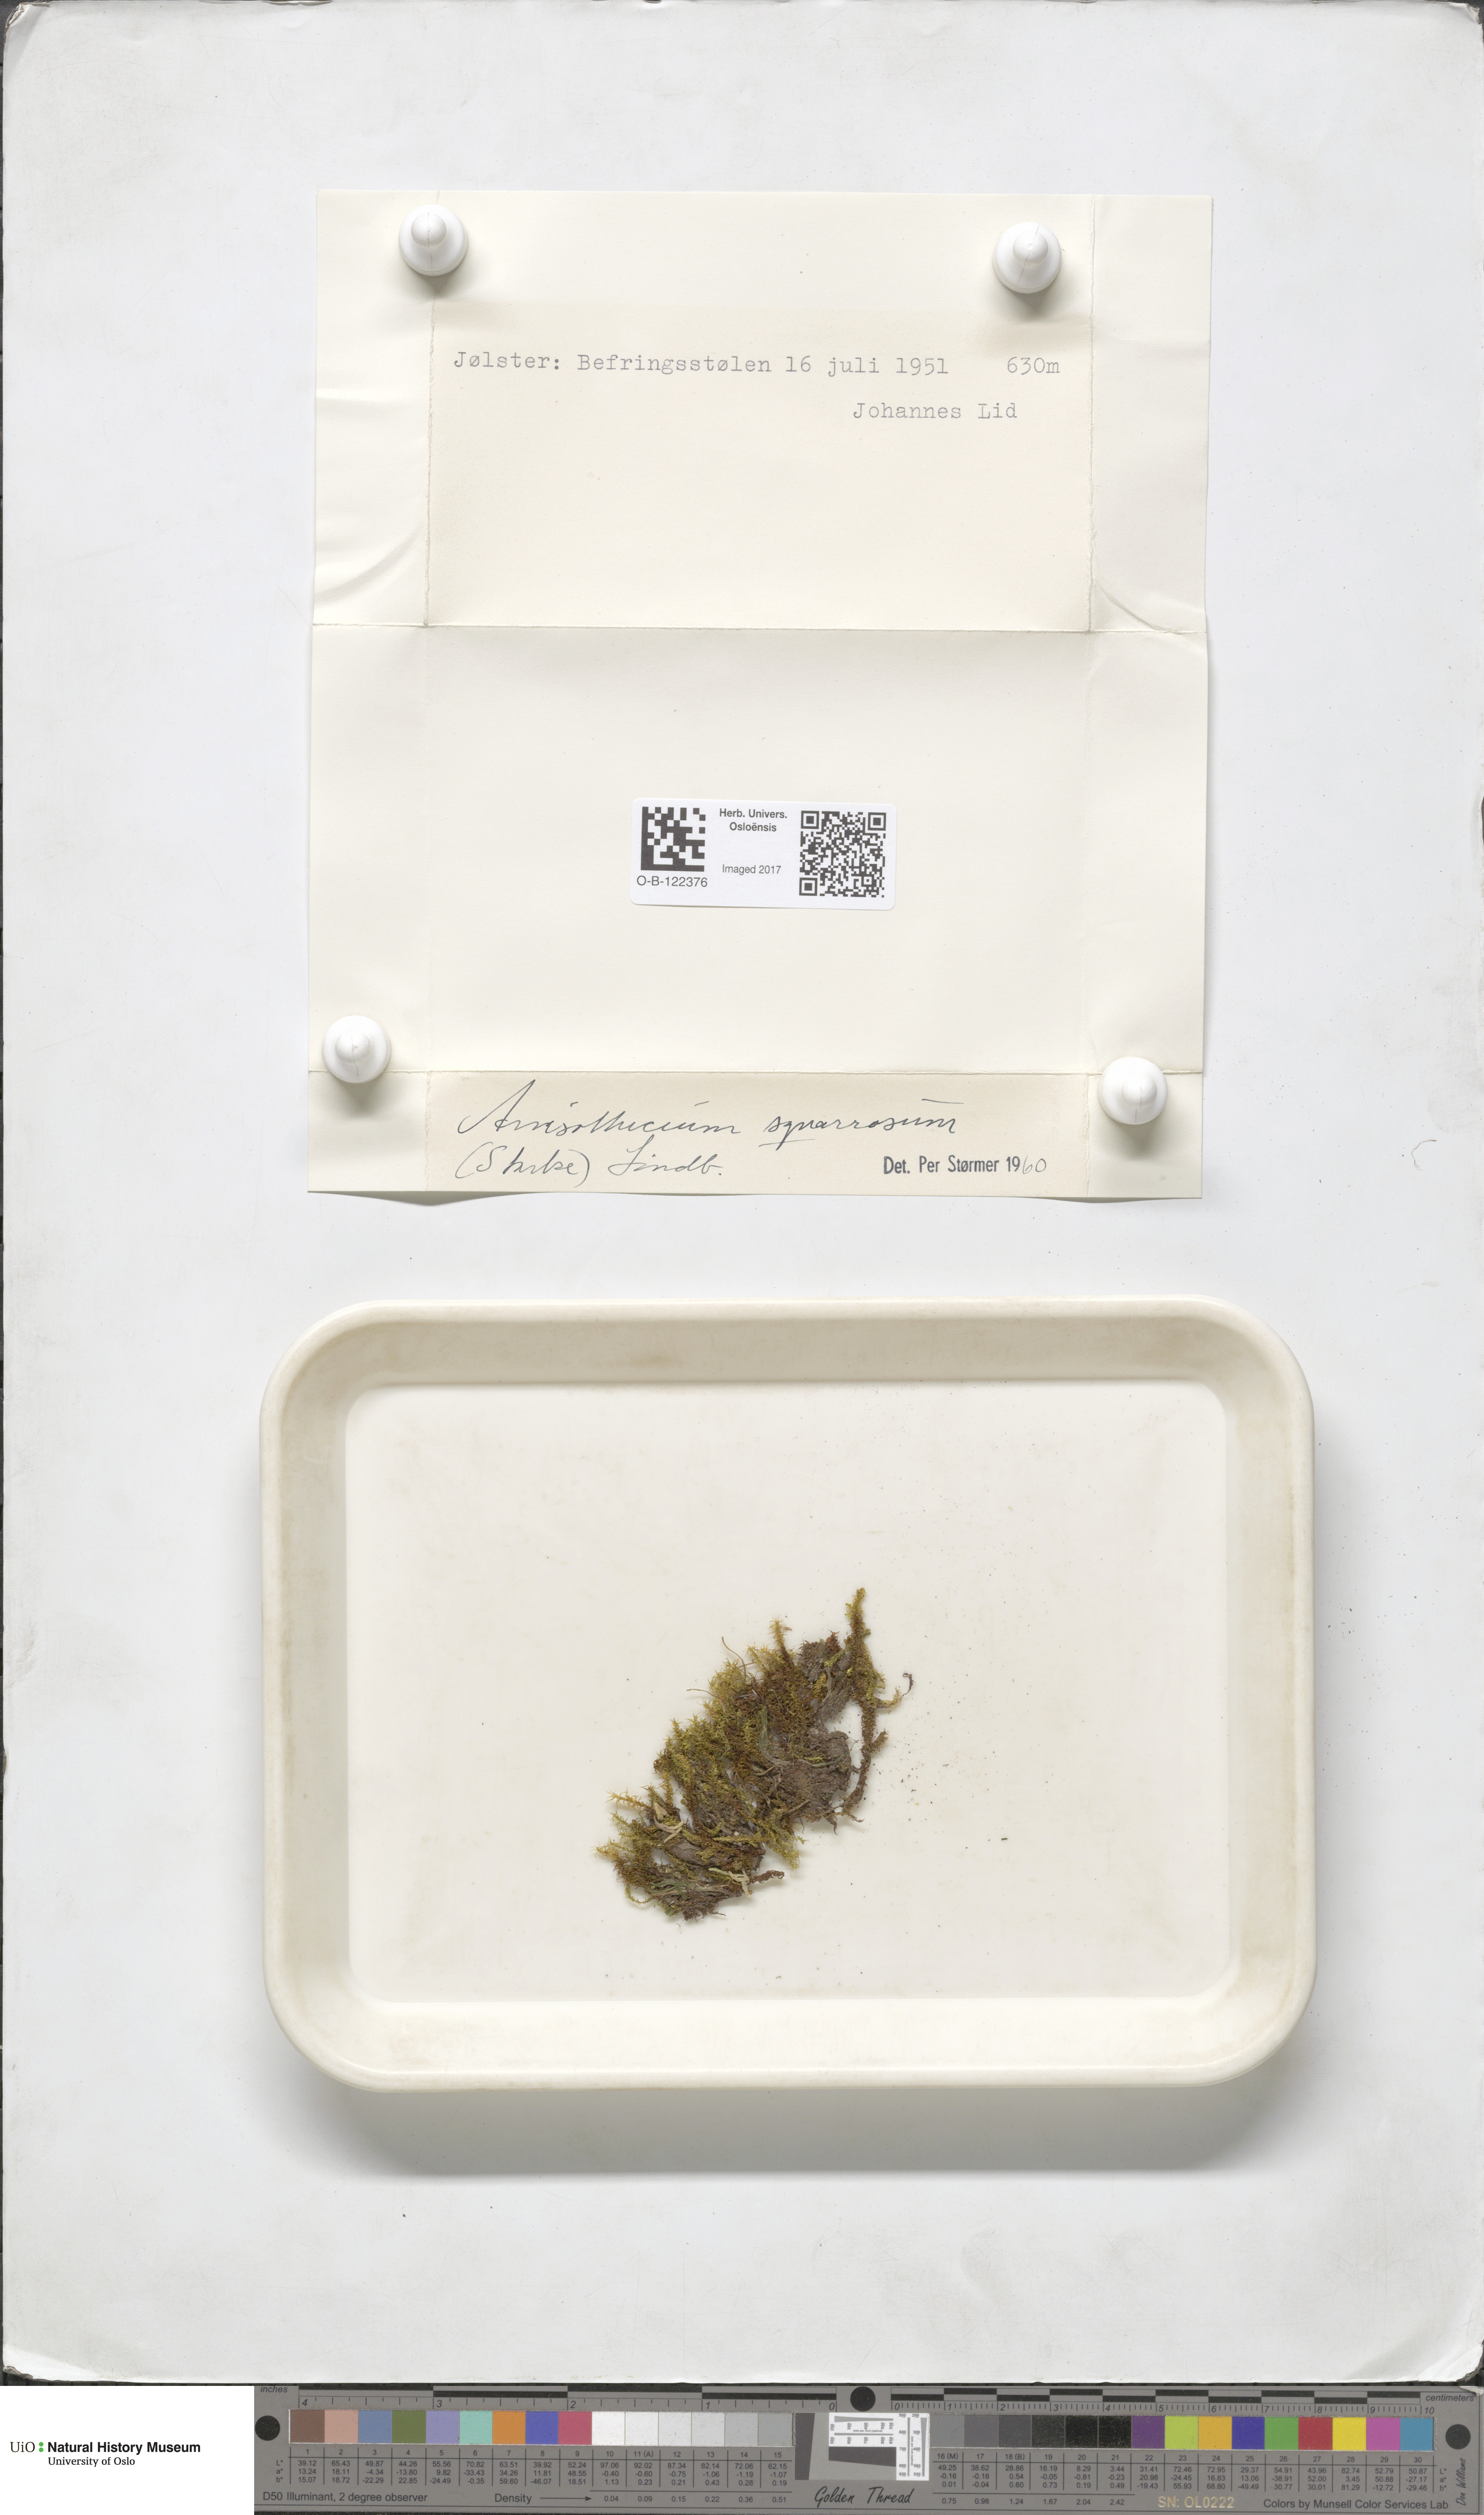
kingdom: Plantae
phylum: Bryophyta
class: Bryopsida
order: Dicranales
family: Aongstroemiaceae
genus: Diobelonella
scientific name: Diobelonella palustris
